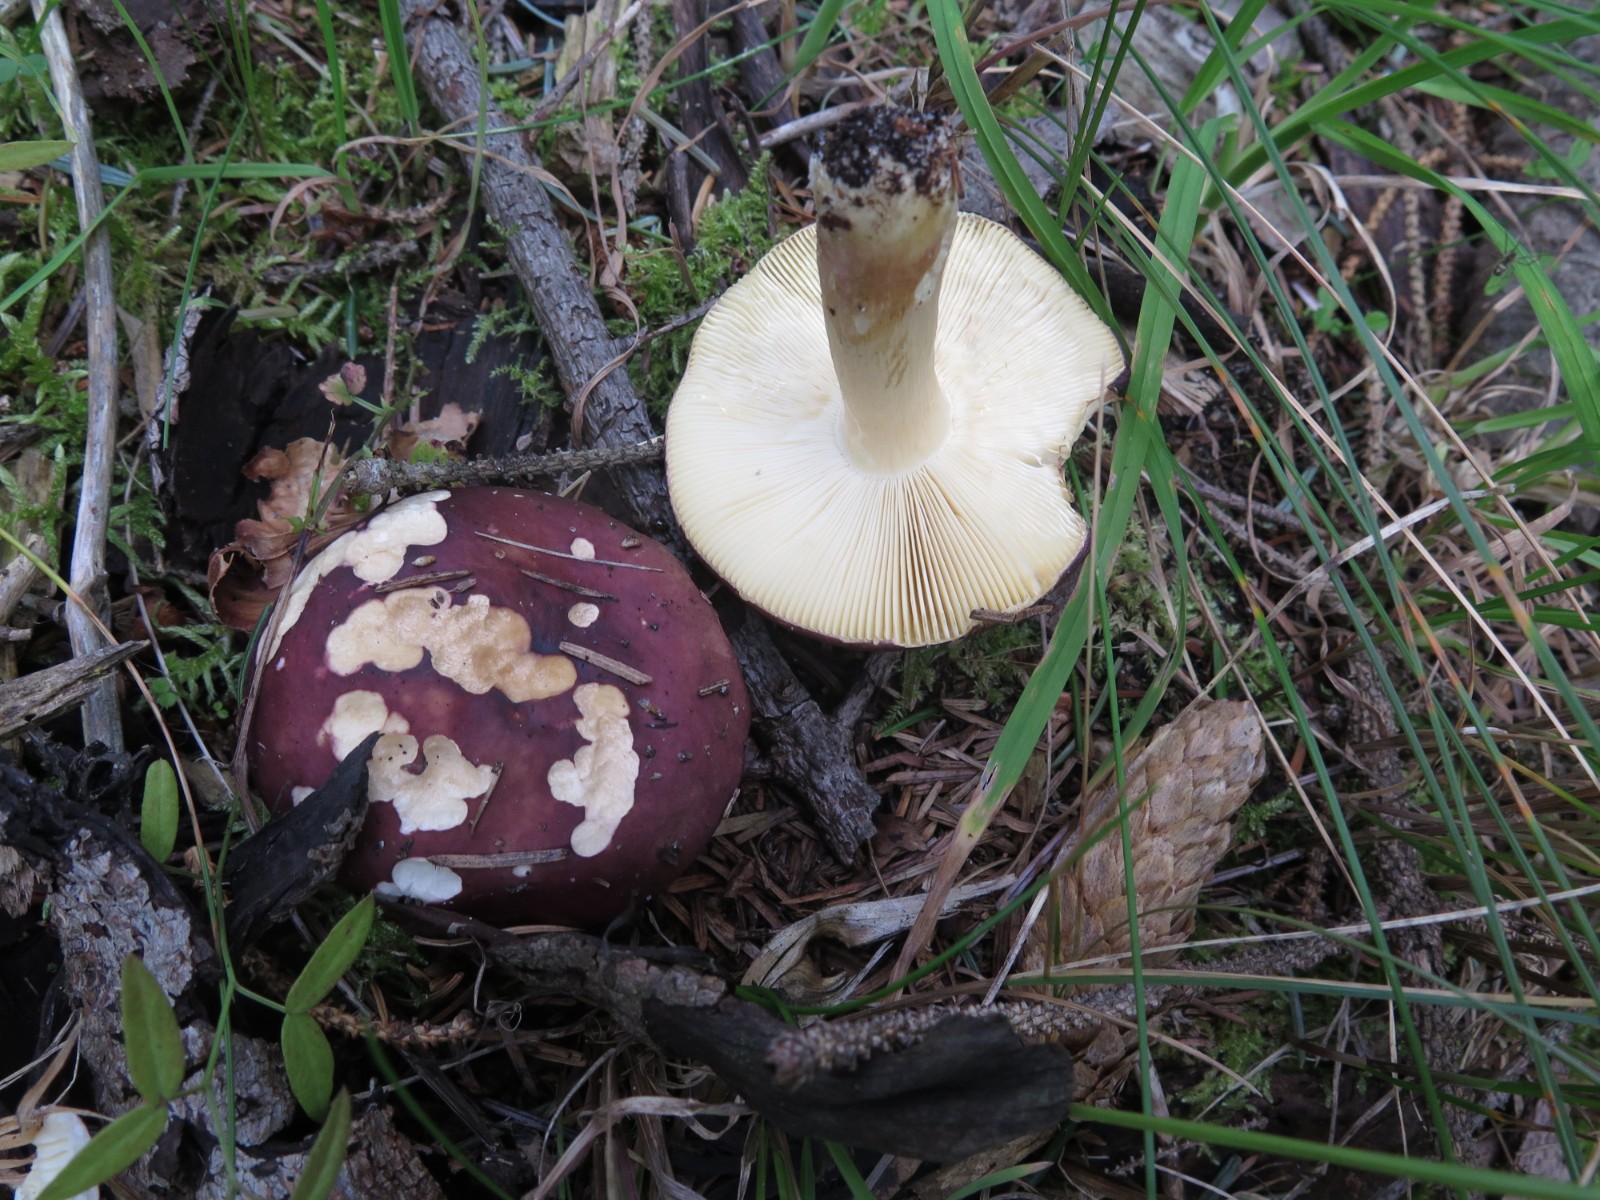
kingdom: Fungi
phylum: Basidiomycota
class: Agaricomycetes
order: Russulales
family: Russulaceae
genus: Russula
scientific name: Russula xerampelina
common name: hummer-skørhat
